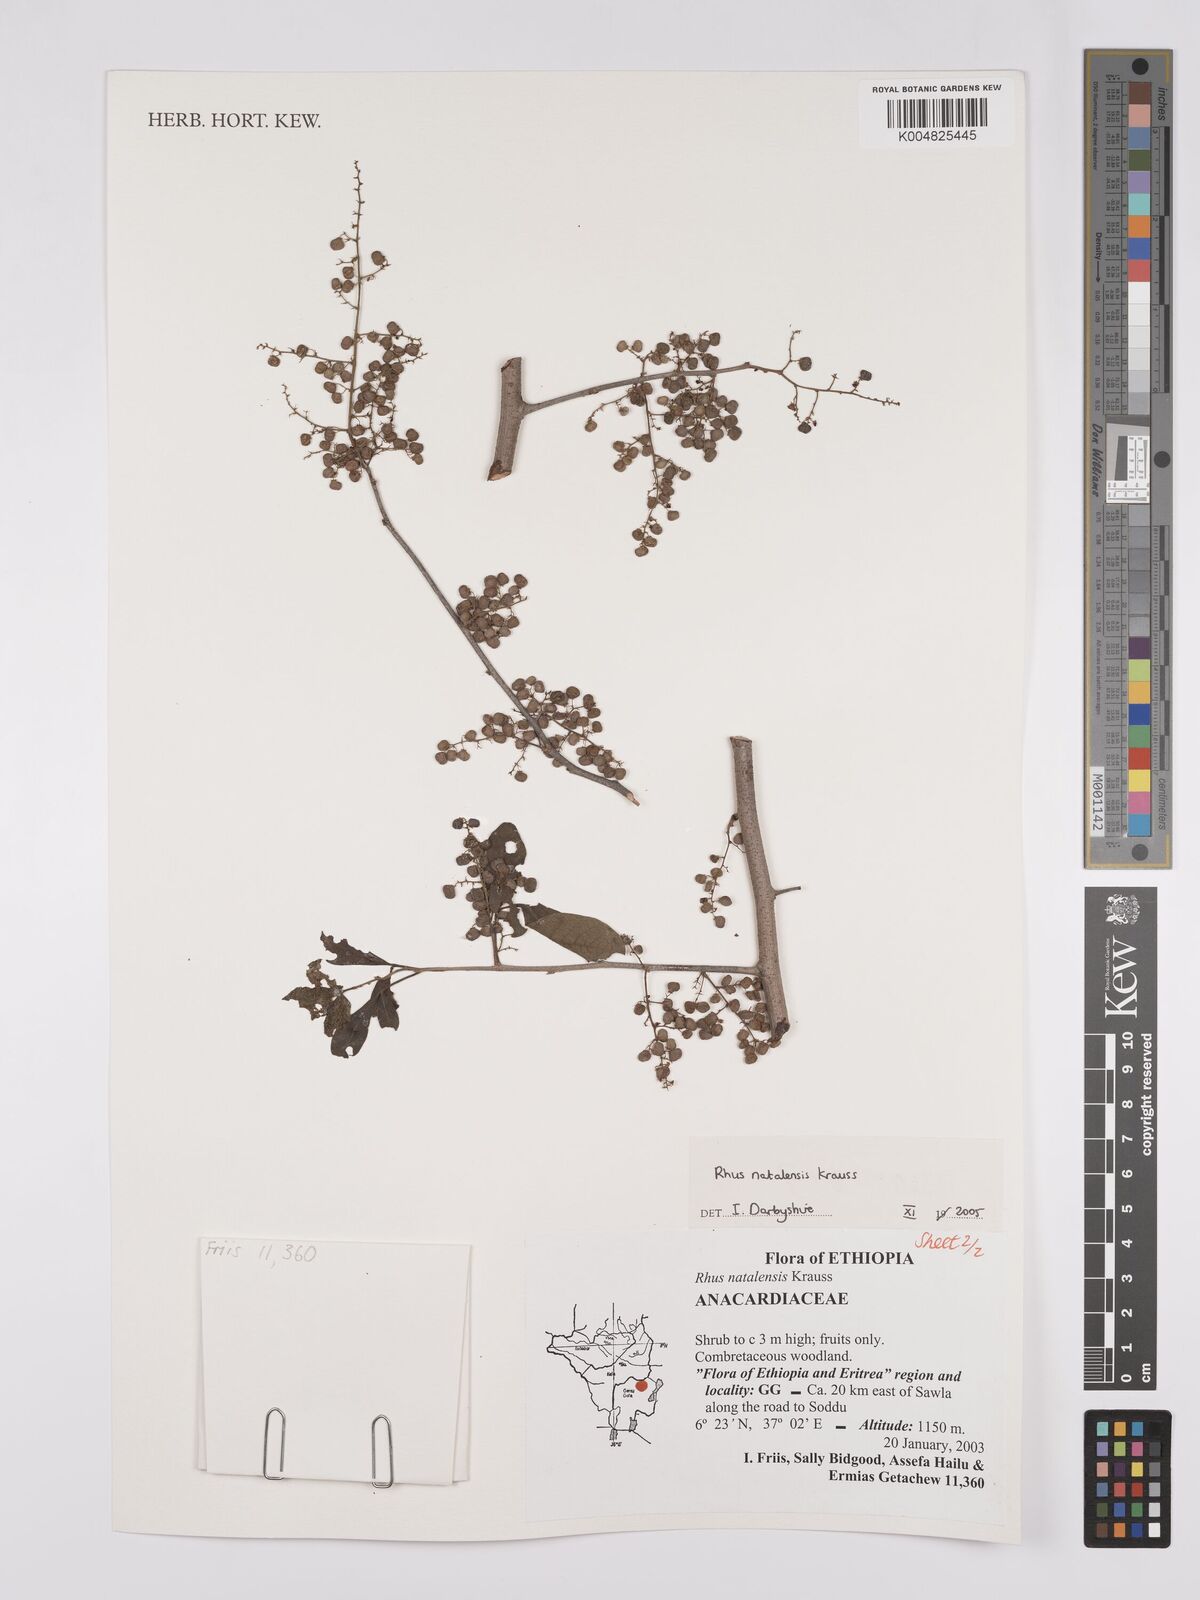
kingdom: Plantae
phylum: Tracheophyta
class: Magnoliopsida
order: Sapindales
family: Anacardiaceae
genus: Searsia
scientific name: Searsia natalensis
